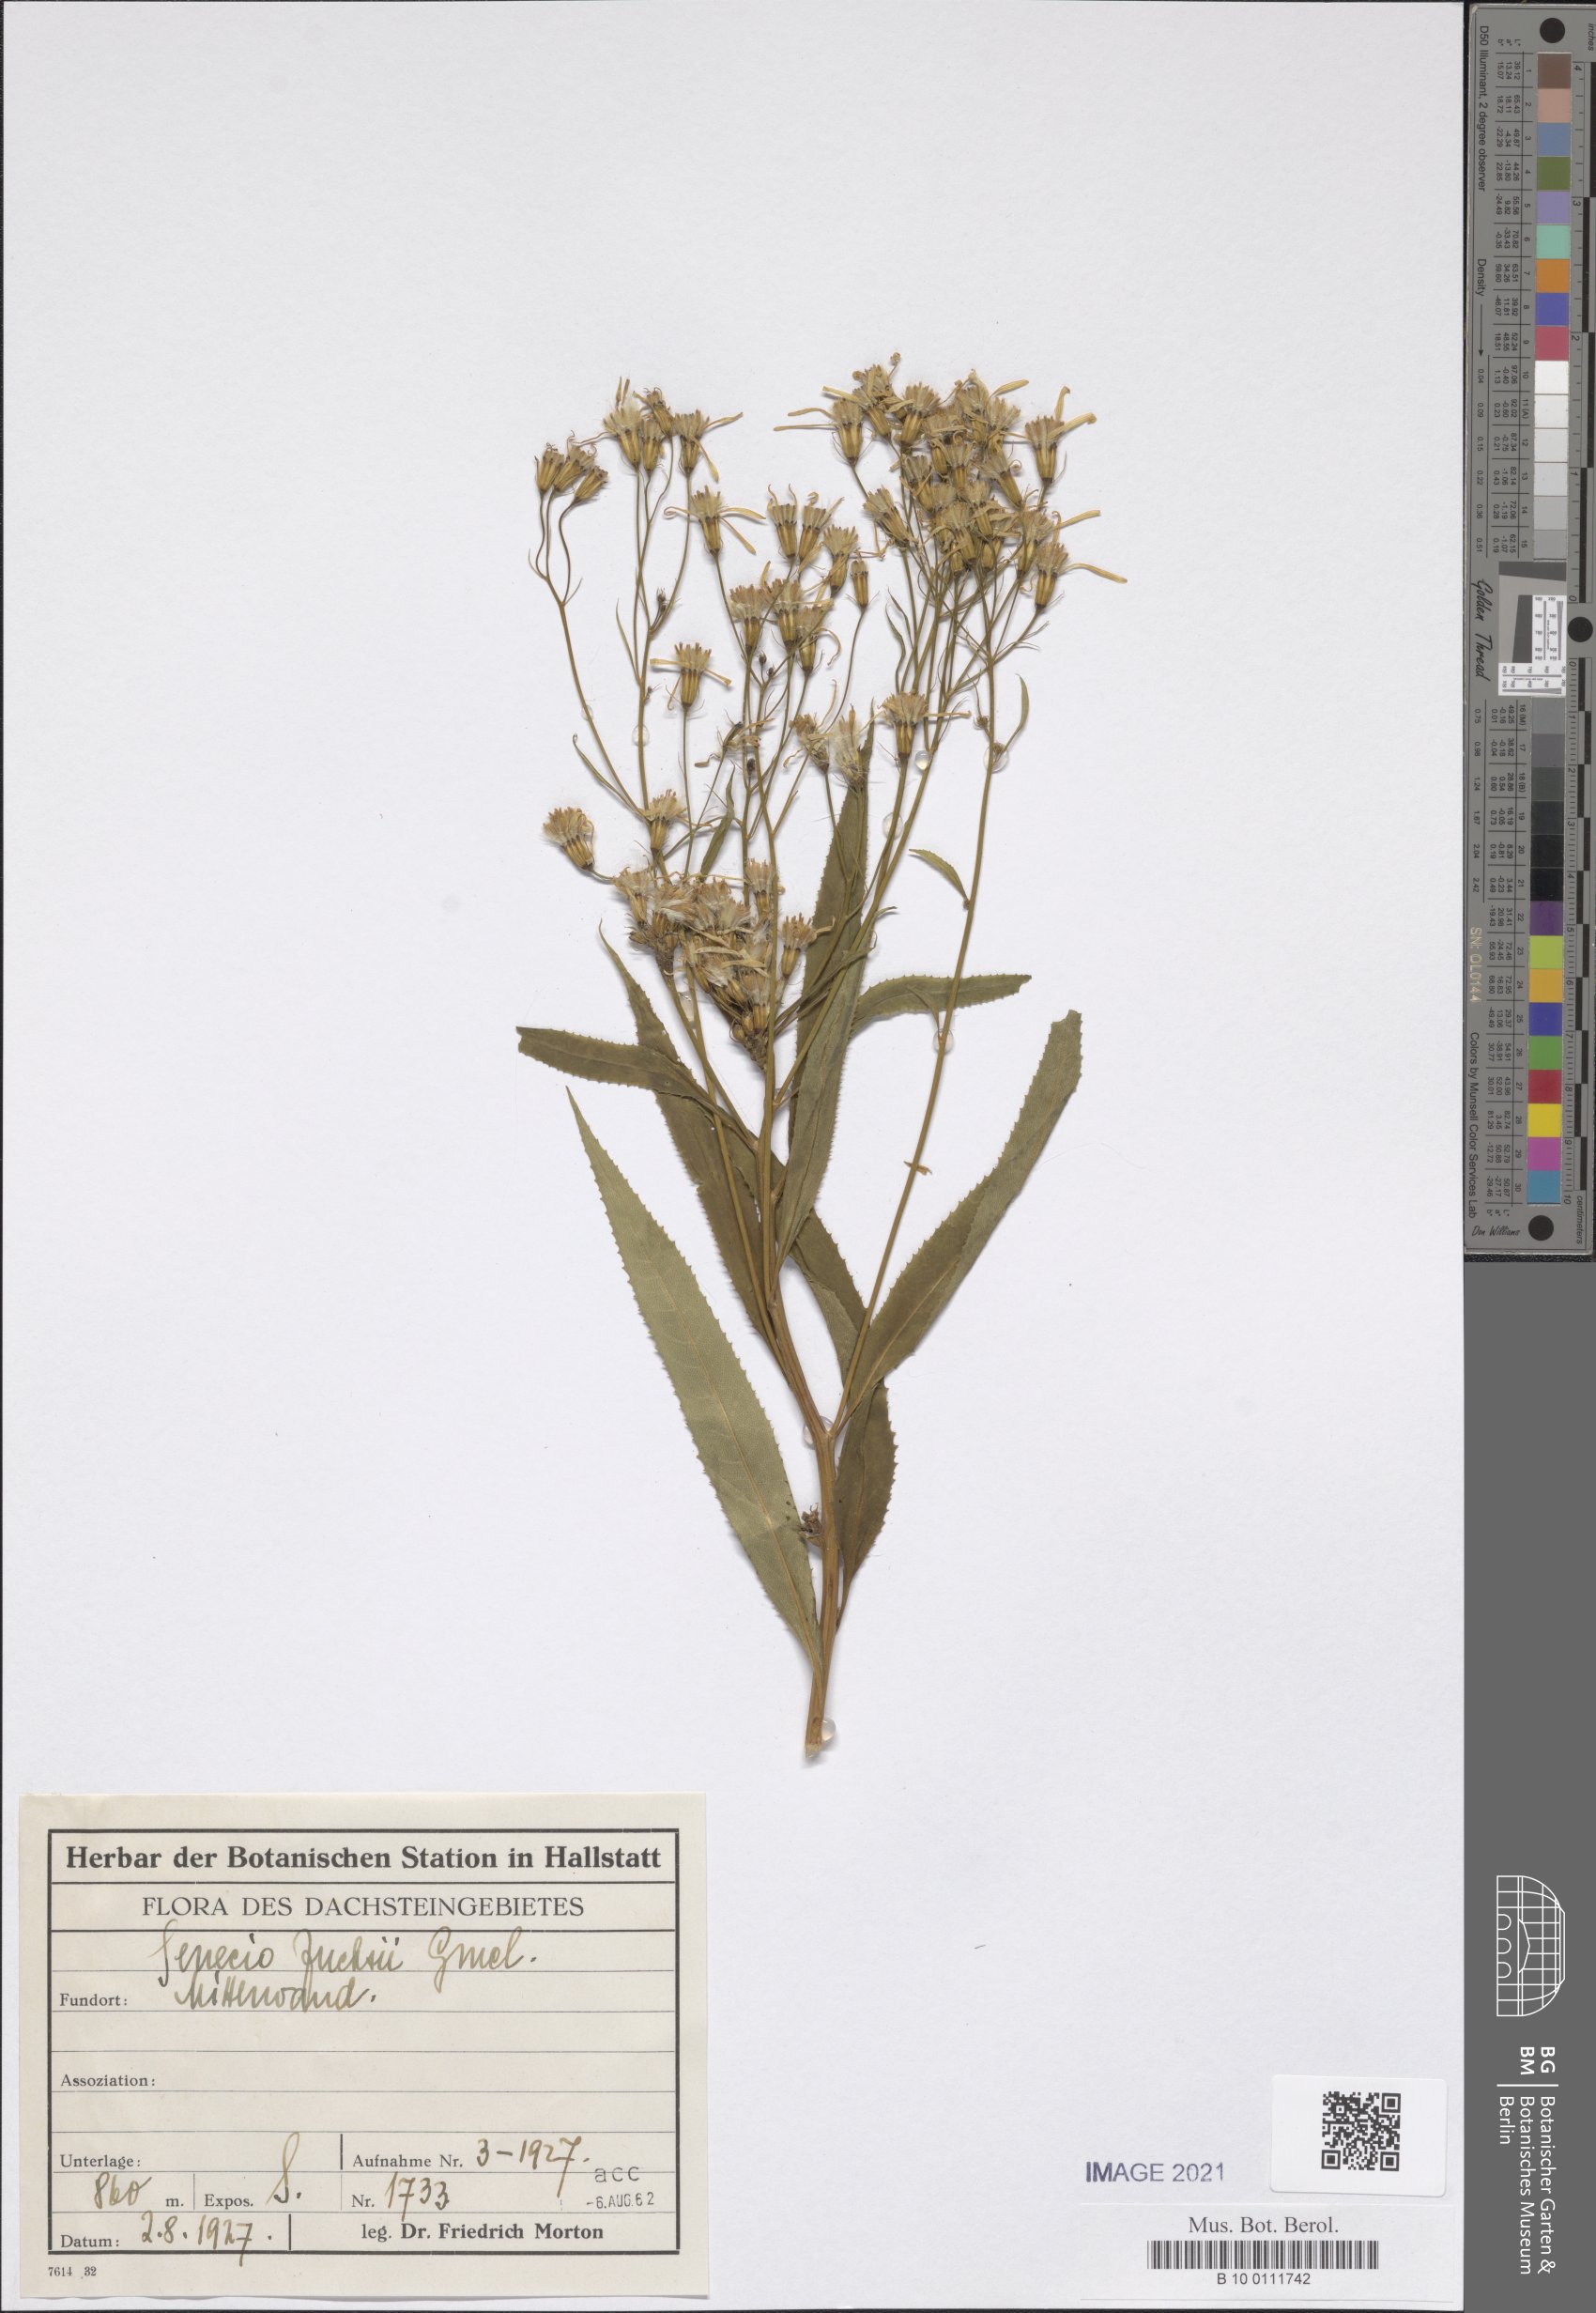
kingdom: Plantae
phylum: Tracheophyta
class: Magnoliopsida
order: Asterales
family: Asteraceae
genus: Senecio
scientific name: Senecio ovatus
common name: Wood ragwort
